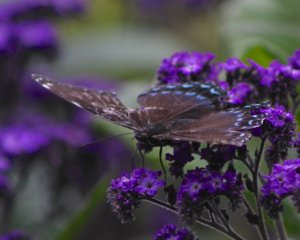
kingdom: Animalia
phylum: Arthropoda
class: Insecta
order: Lepidoptera
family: Nymphalidae
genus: Limenitis
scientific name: Limenitis astyanax
